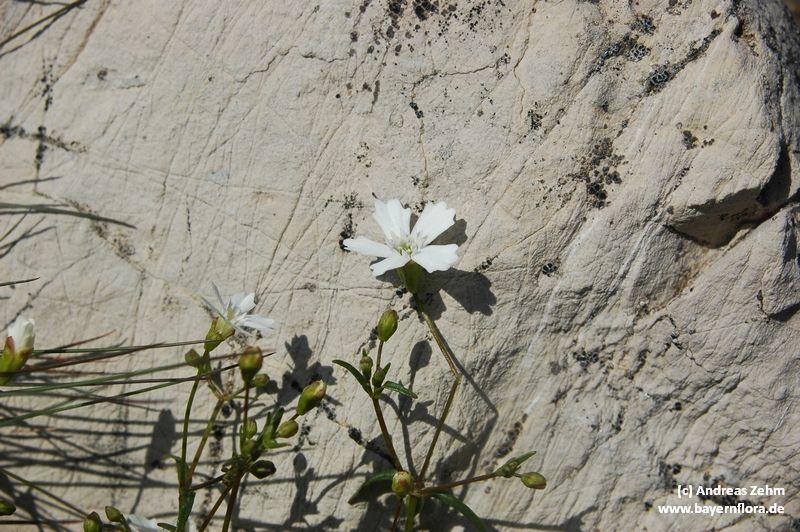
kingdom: Plantae
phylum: Tracheophyta
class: Magnoliopsida
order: Caryophyllales
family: Caryophyllaceae
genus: Heliosperma
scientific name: Heliosperma pusillum
